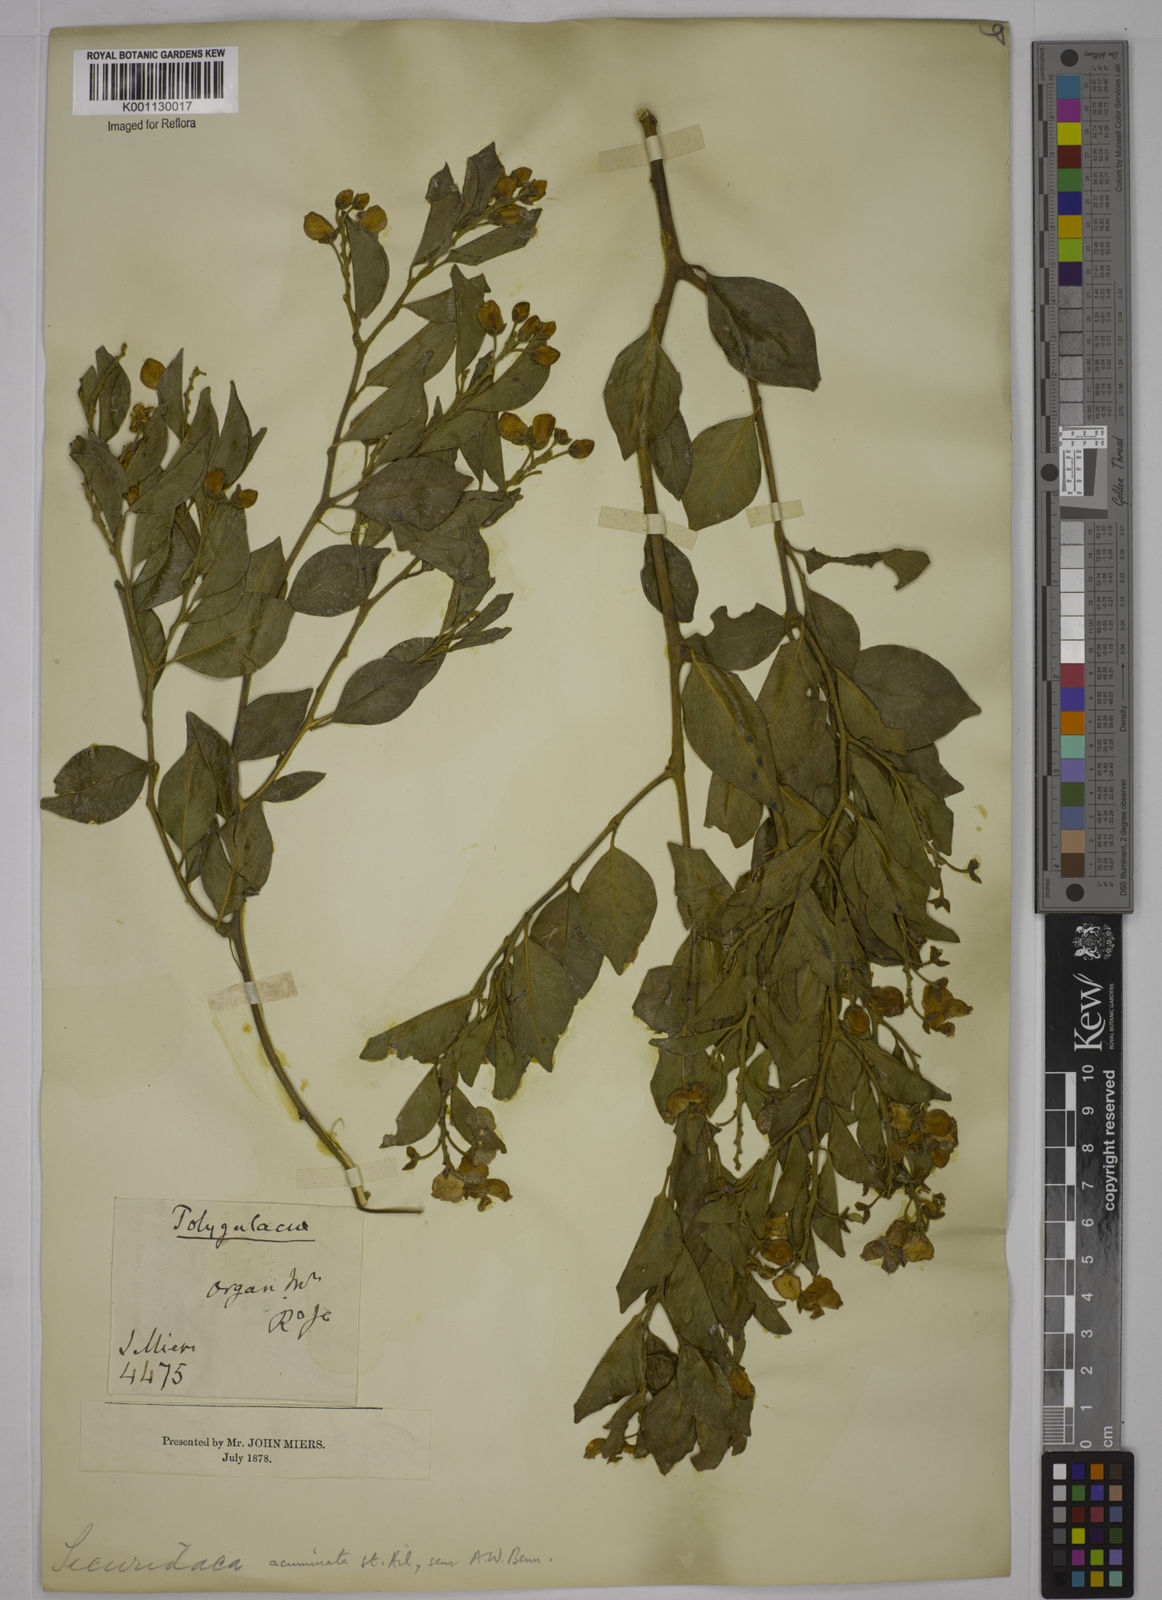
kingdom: Plantae
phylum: Tracheophyta
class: Magnoliopsida
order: Fabales
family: Polygalaceae
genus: Securidaca
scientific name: Securidaca acuminata
